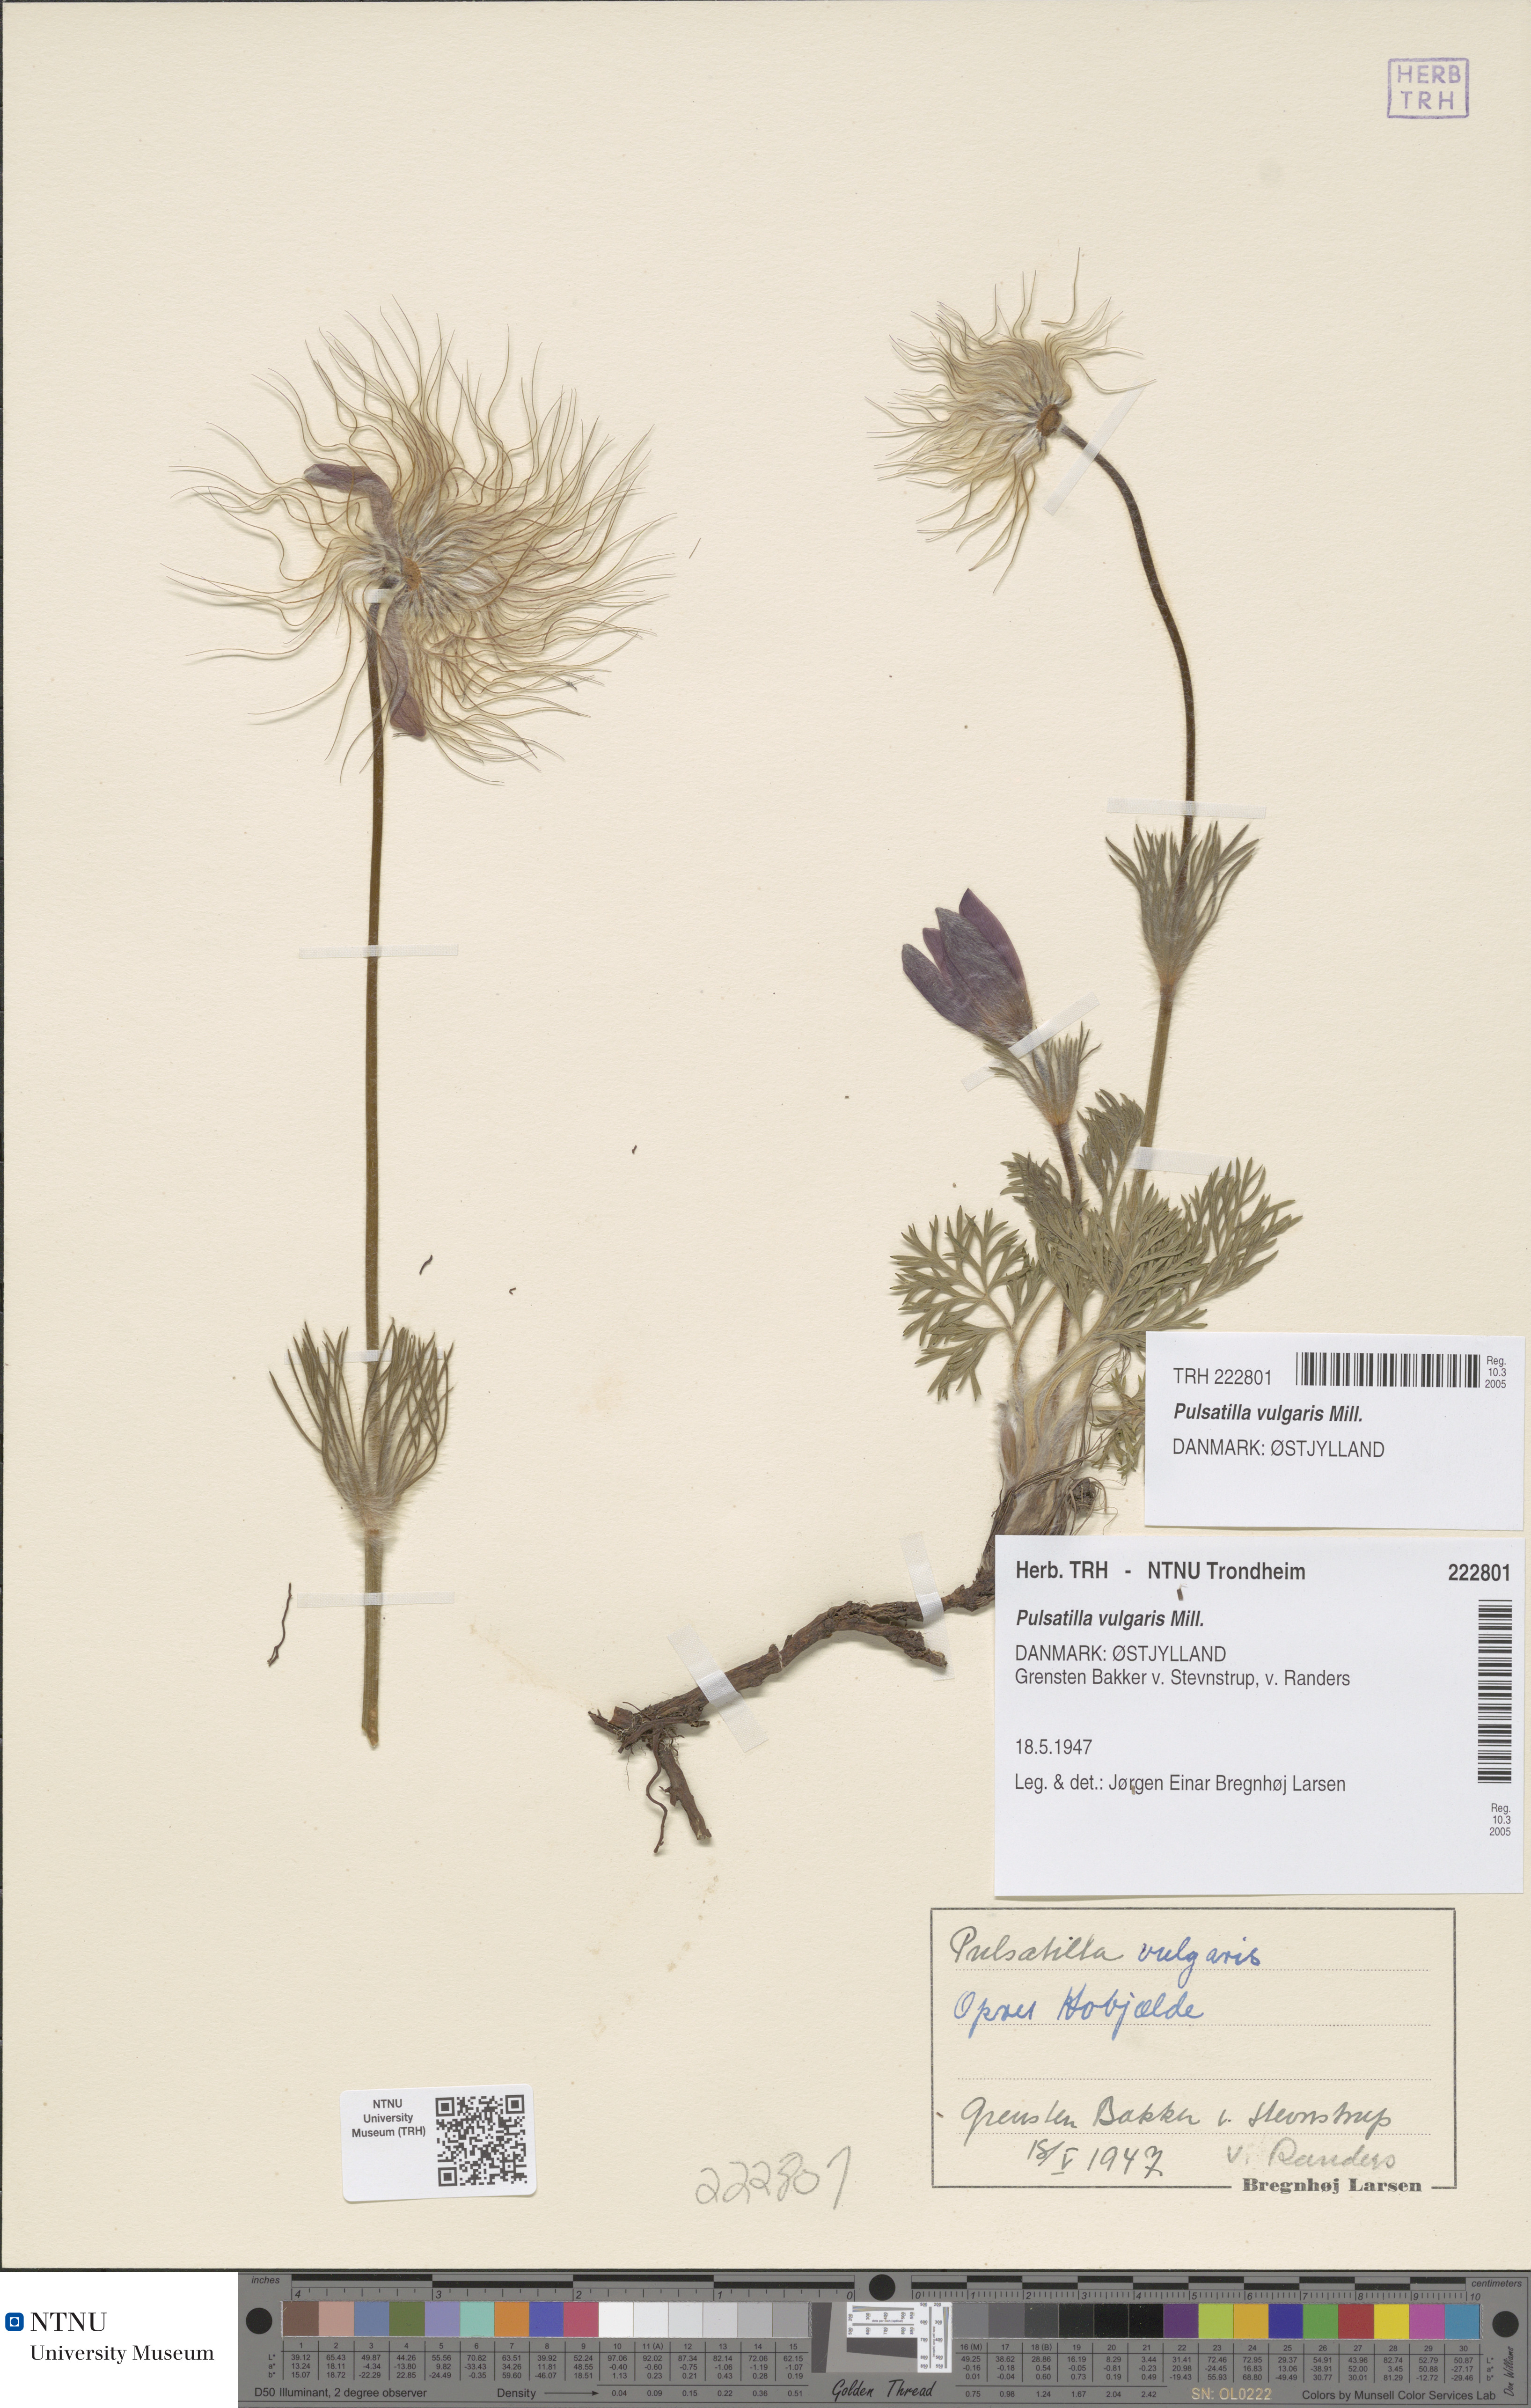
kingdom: Plantae
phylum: Tracheophyta
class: Magnoliopsida
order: Ranunculales
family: Ranunculaceae
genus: Pulsatilla
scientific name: Pulsatilla vulgaris
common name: Pasqueflower
